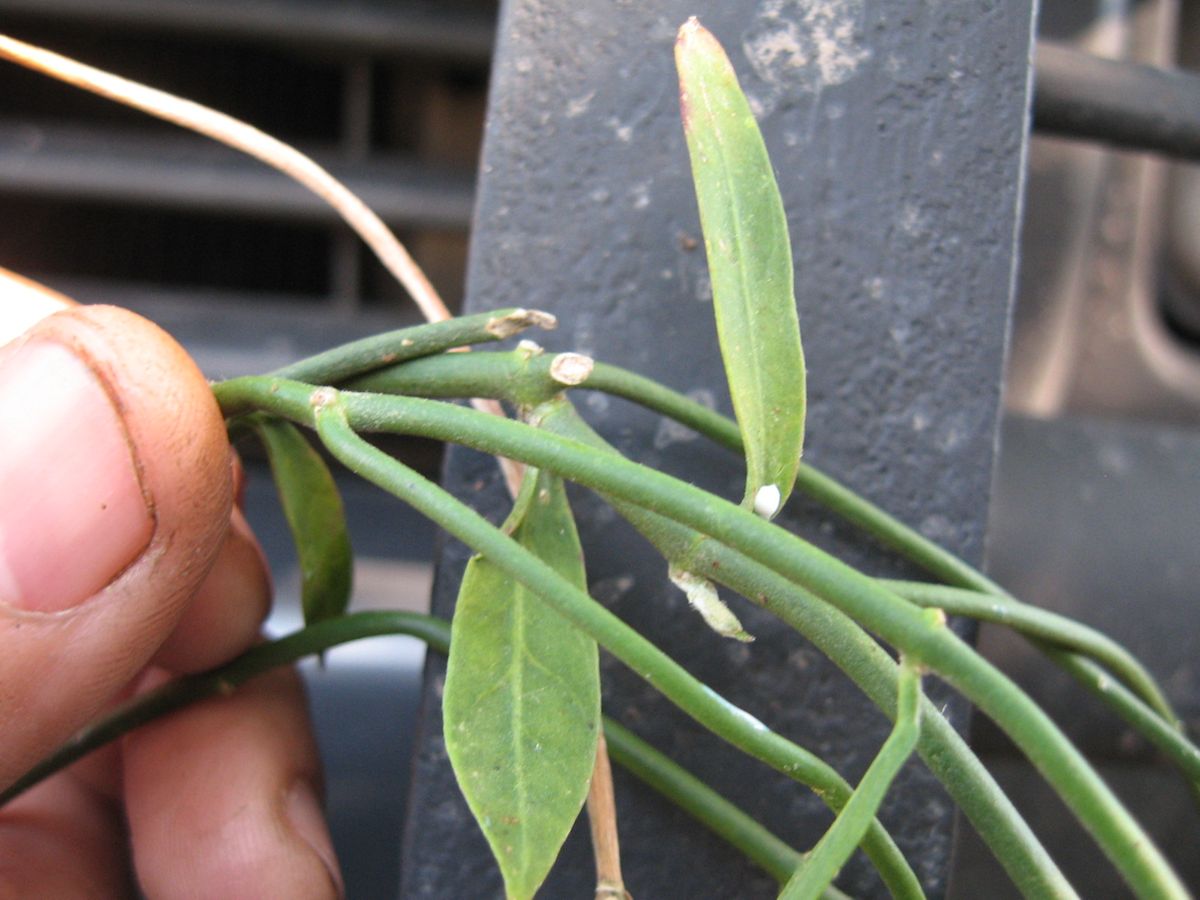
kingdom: Plantae
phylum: Tracheophyta
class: Magnoliopsida
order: Gentianales
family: Apocynaceae
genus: Funastrum
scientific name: Funastrum clausum
